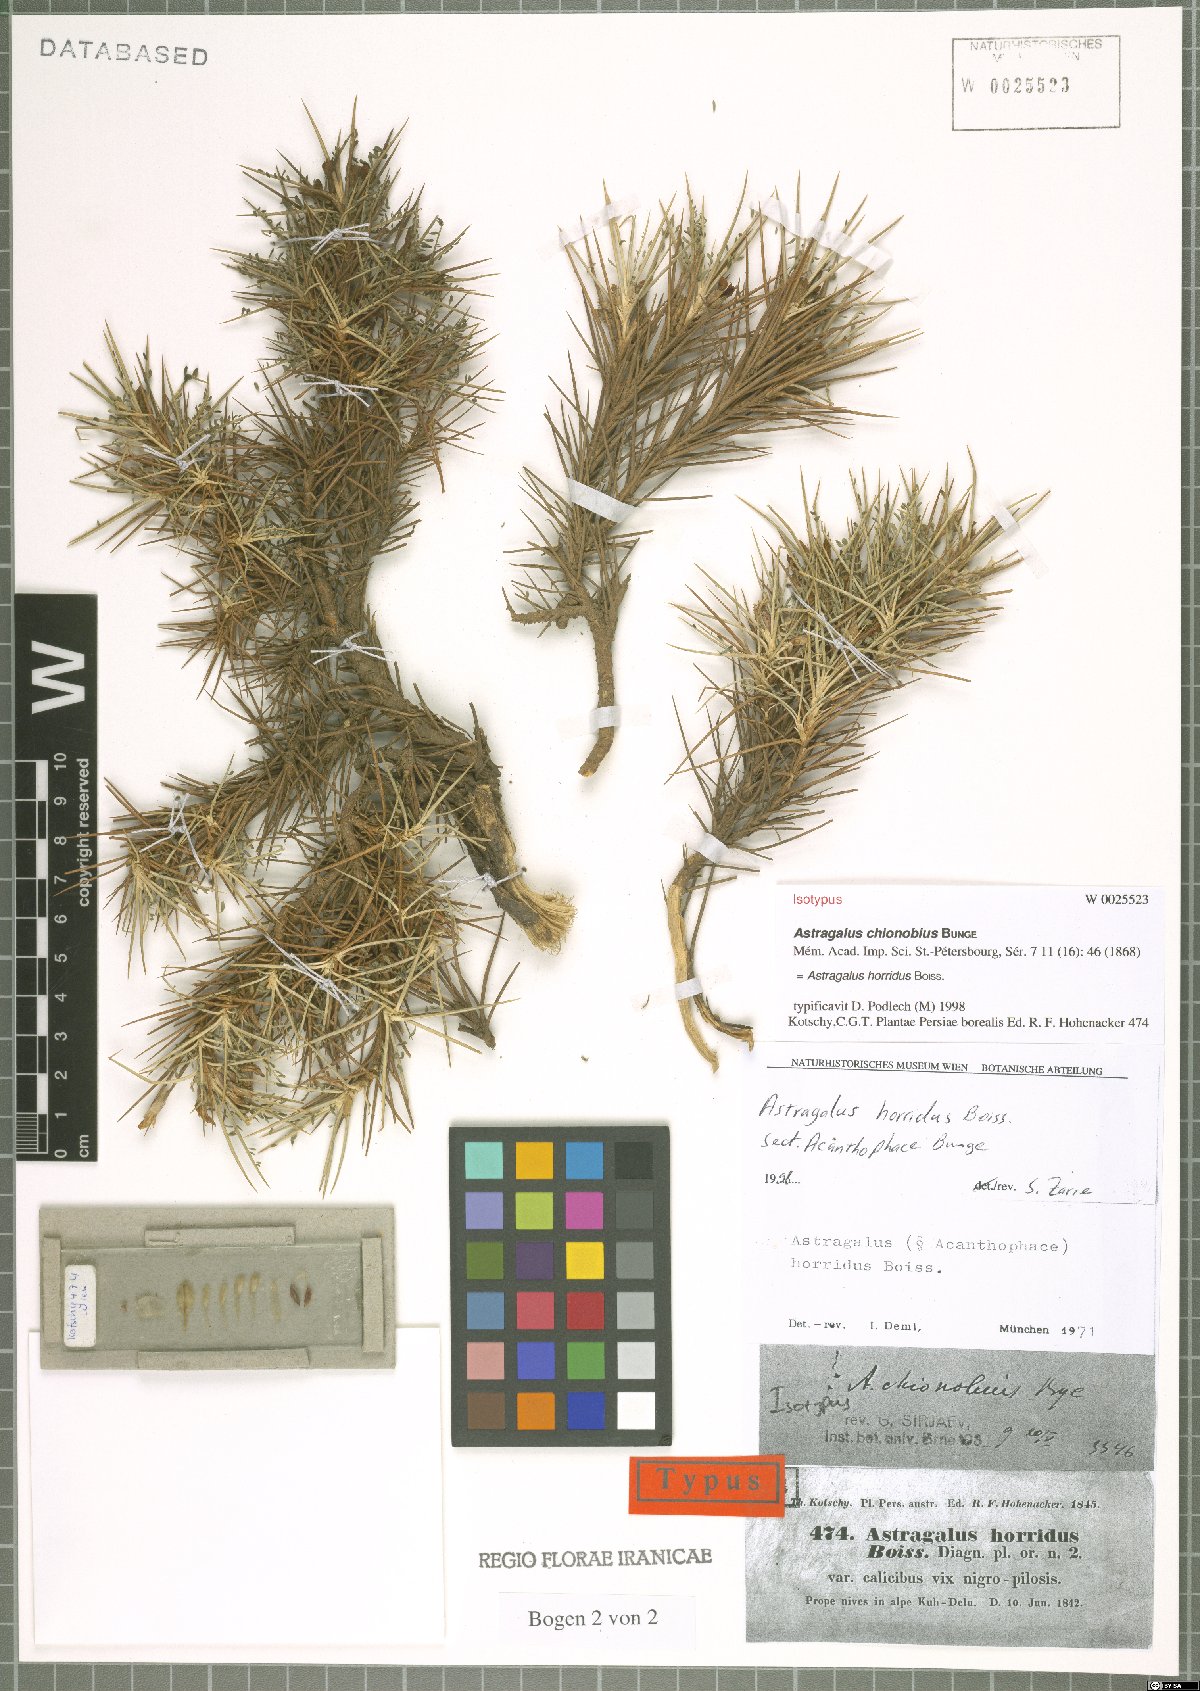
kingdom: Plantae
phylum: Tracheophyta
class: Magnoliopsida
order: Fabales
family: Fabaceae
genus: Astragalus
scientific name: Astragalus horridus
